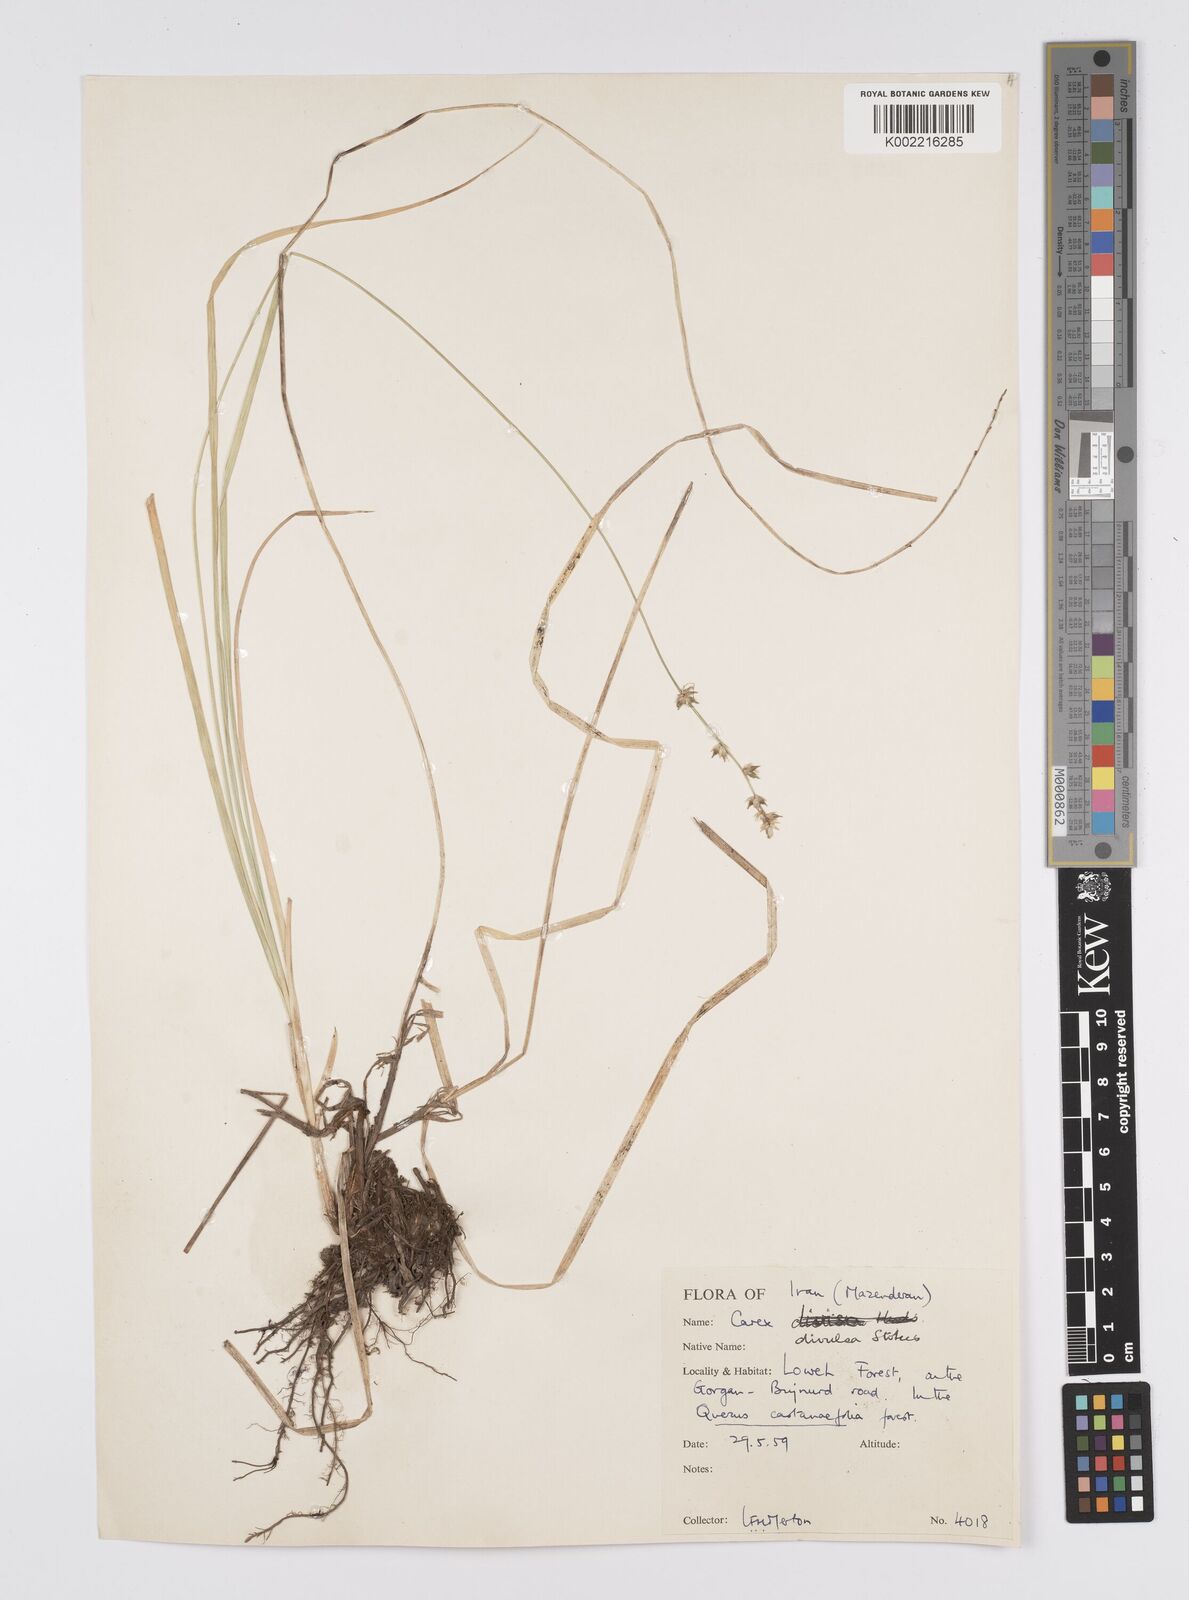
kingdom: Plantae
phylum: Tracheophyta
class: Liliopsida
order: Poales
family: Cyperaceae
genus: Carex
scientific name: Carex divulsa
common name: Grassland sedge
